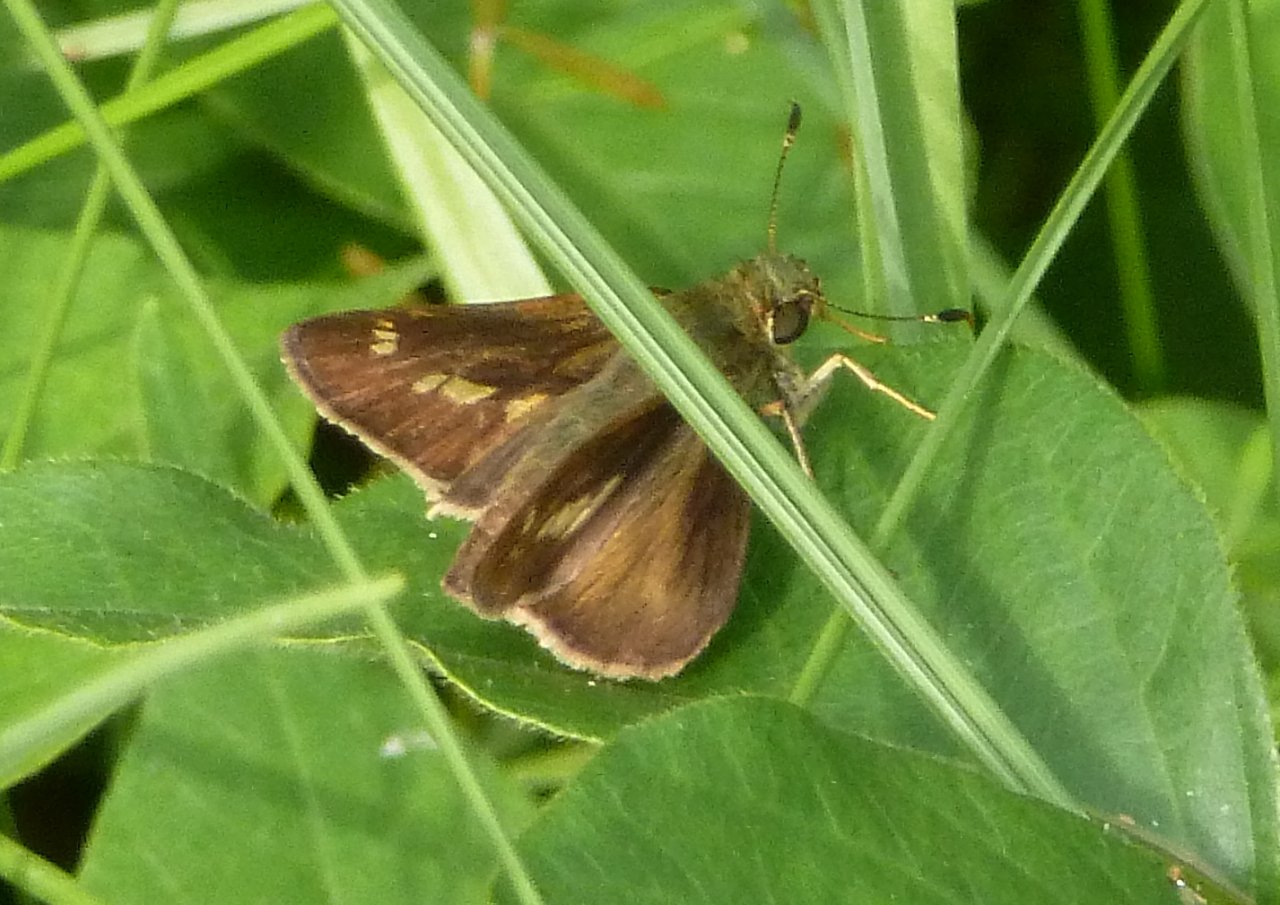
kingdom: Animalia
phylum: Arthropoda
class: Insecta
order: Lepidoptera
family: Hesperiidae
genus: Vernia
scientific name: Vernia verna
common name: Little Glassywing
